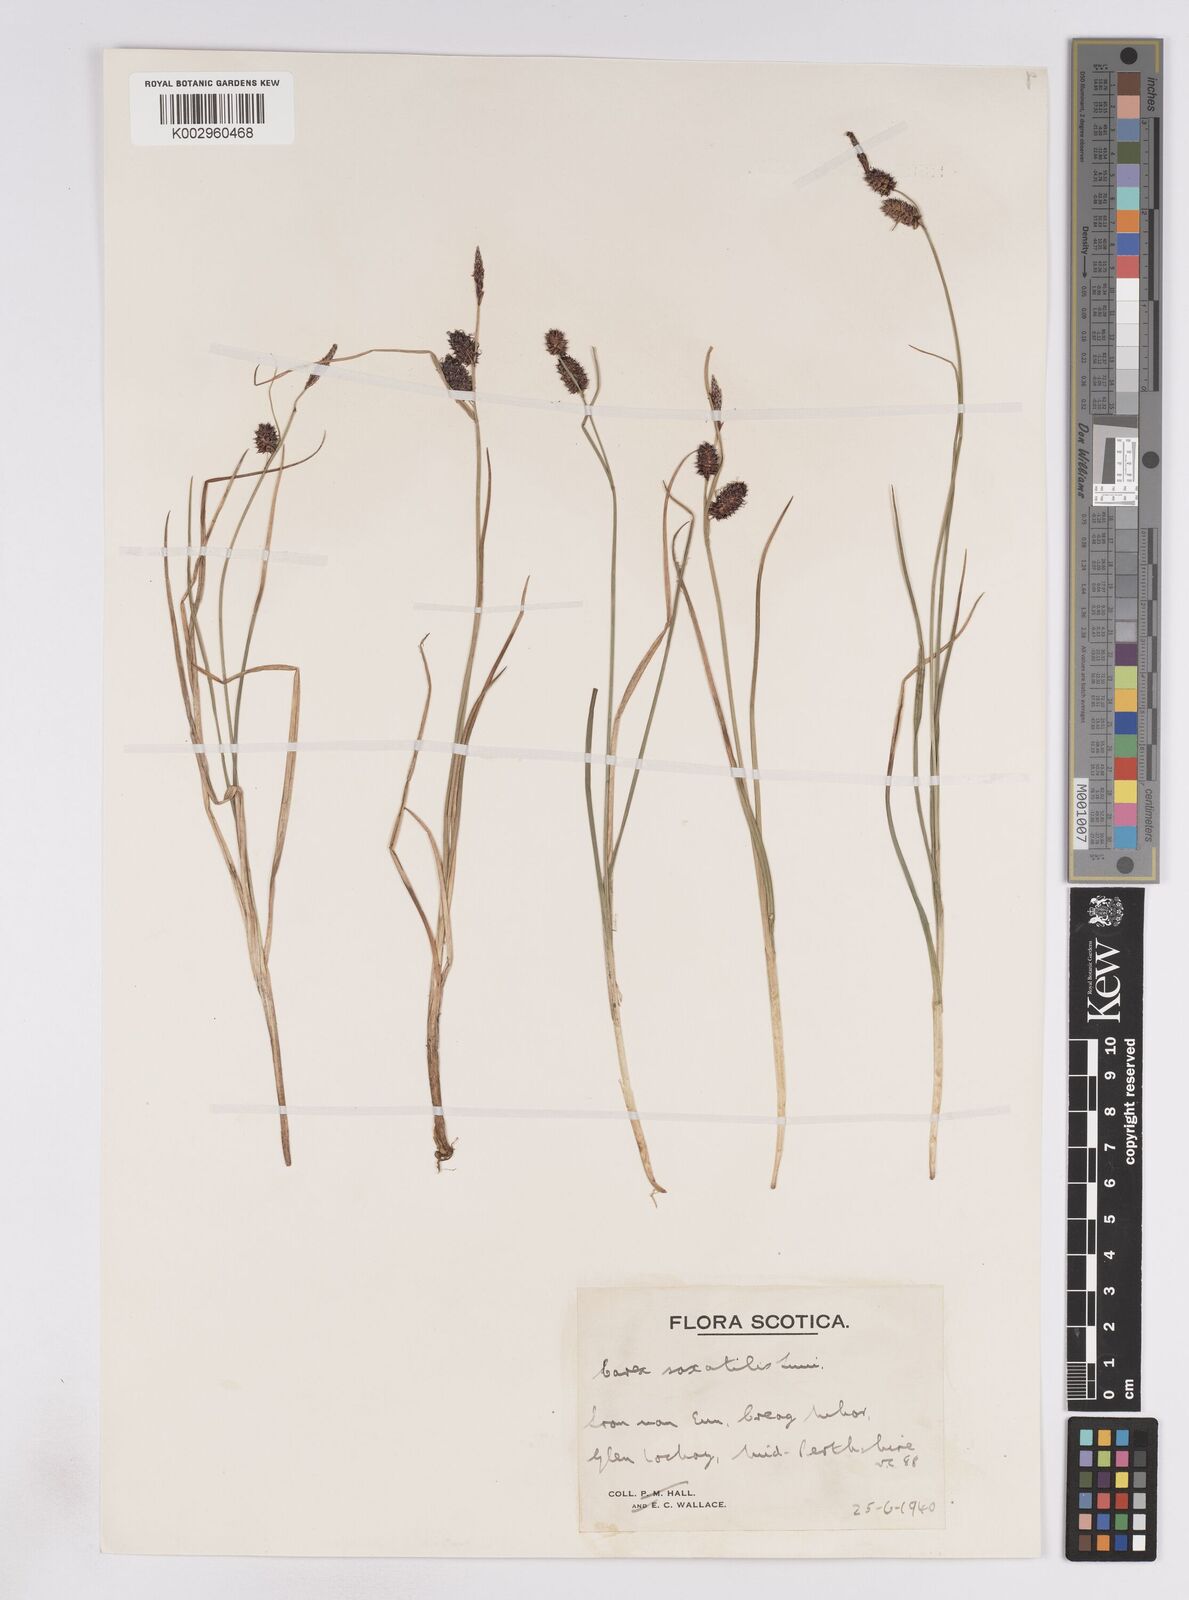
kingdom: Plantae
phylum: Tracheophyta
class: Liliopsida
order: Poales
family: Cyperaceae
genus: Carex
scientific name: Carex saxatilis
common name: Russet sedge
